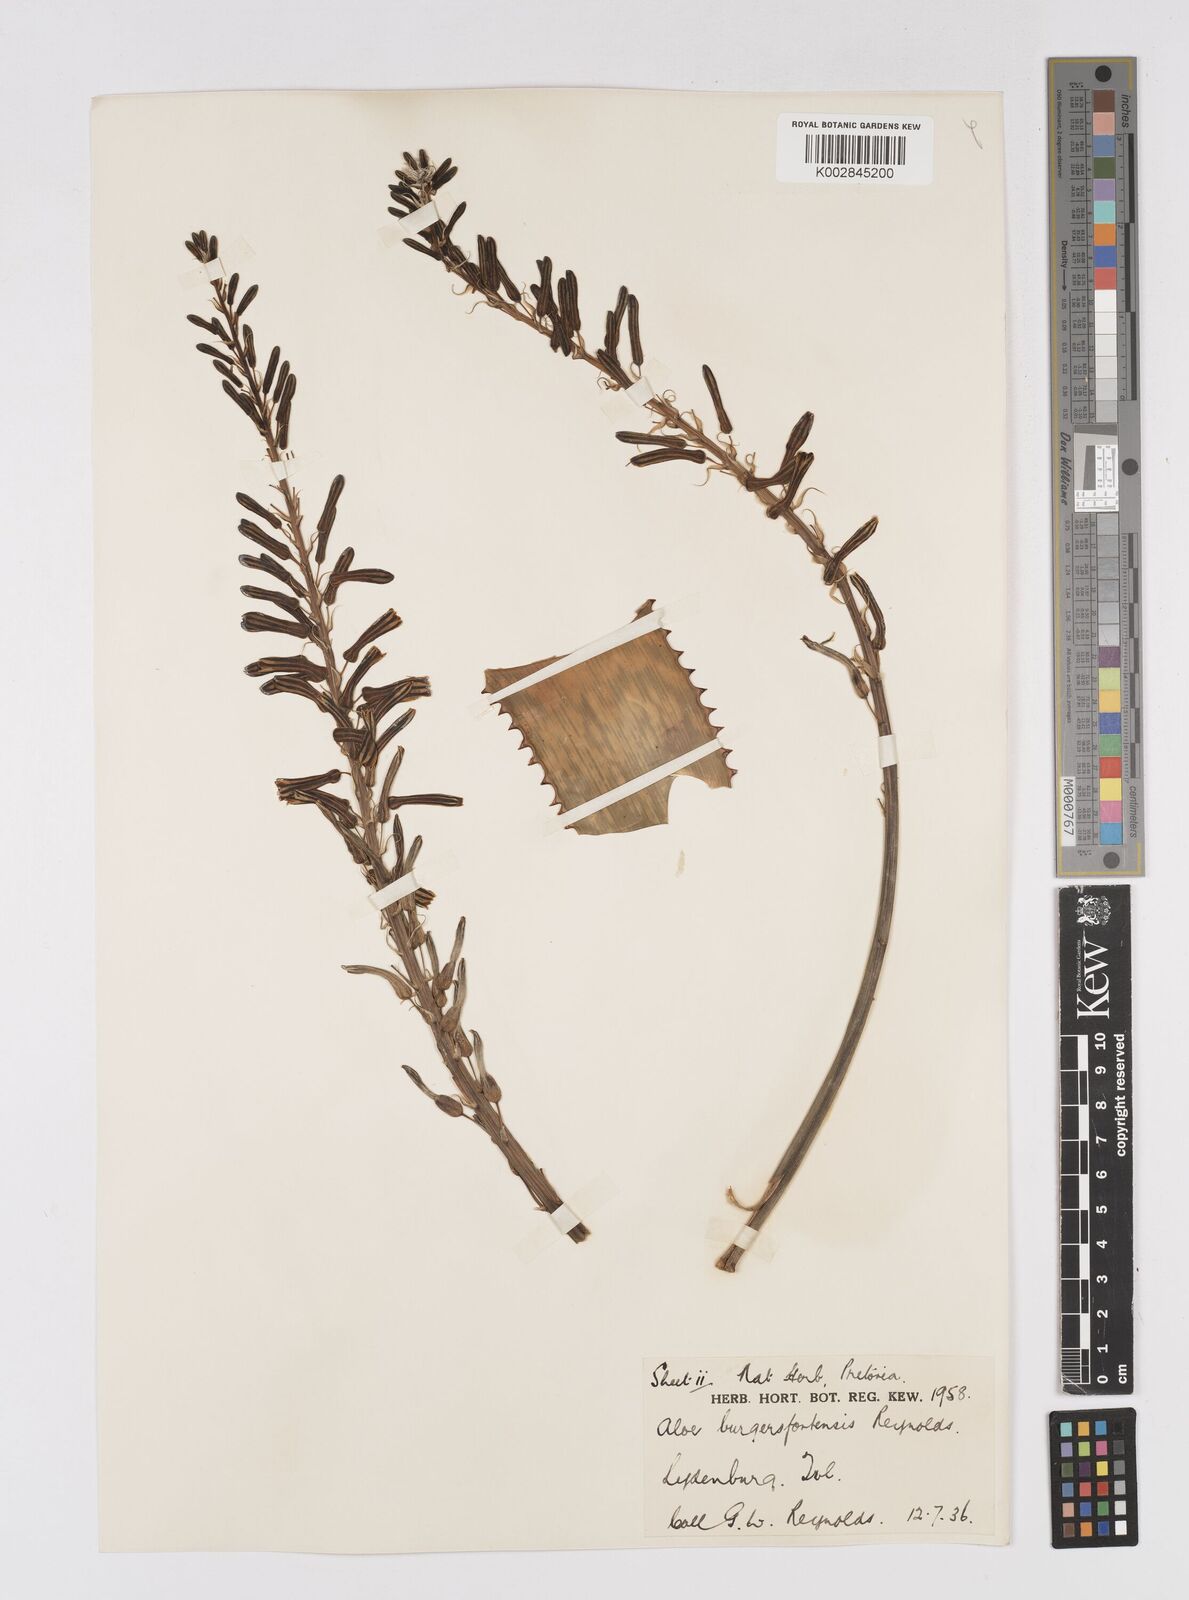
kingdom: Plantae
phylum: Tracheophyta
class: Liliopsida
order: Asparagales
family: Asphodelaceae
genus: Aloe
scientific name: Aloe burgersfortensis
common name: Burgersfort aloe
